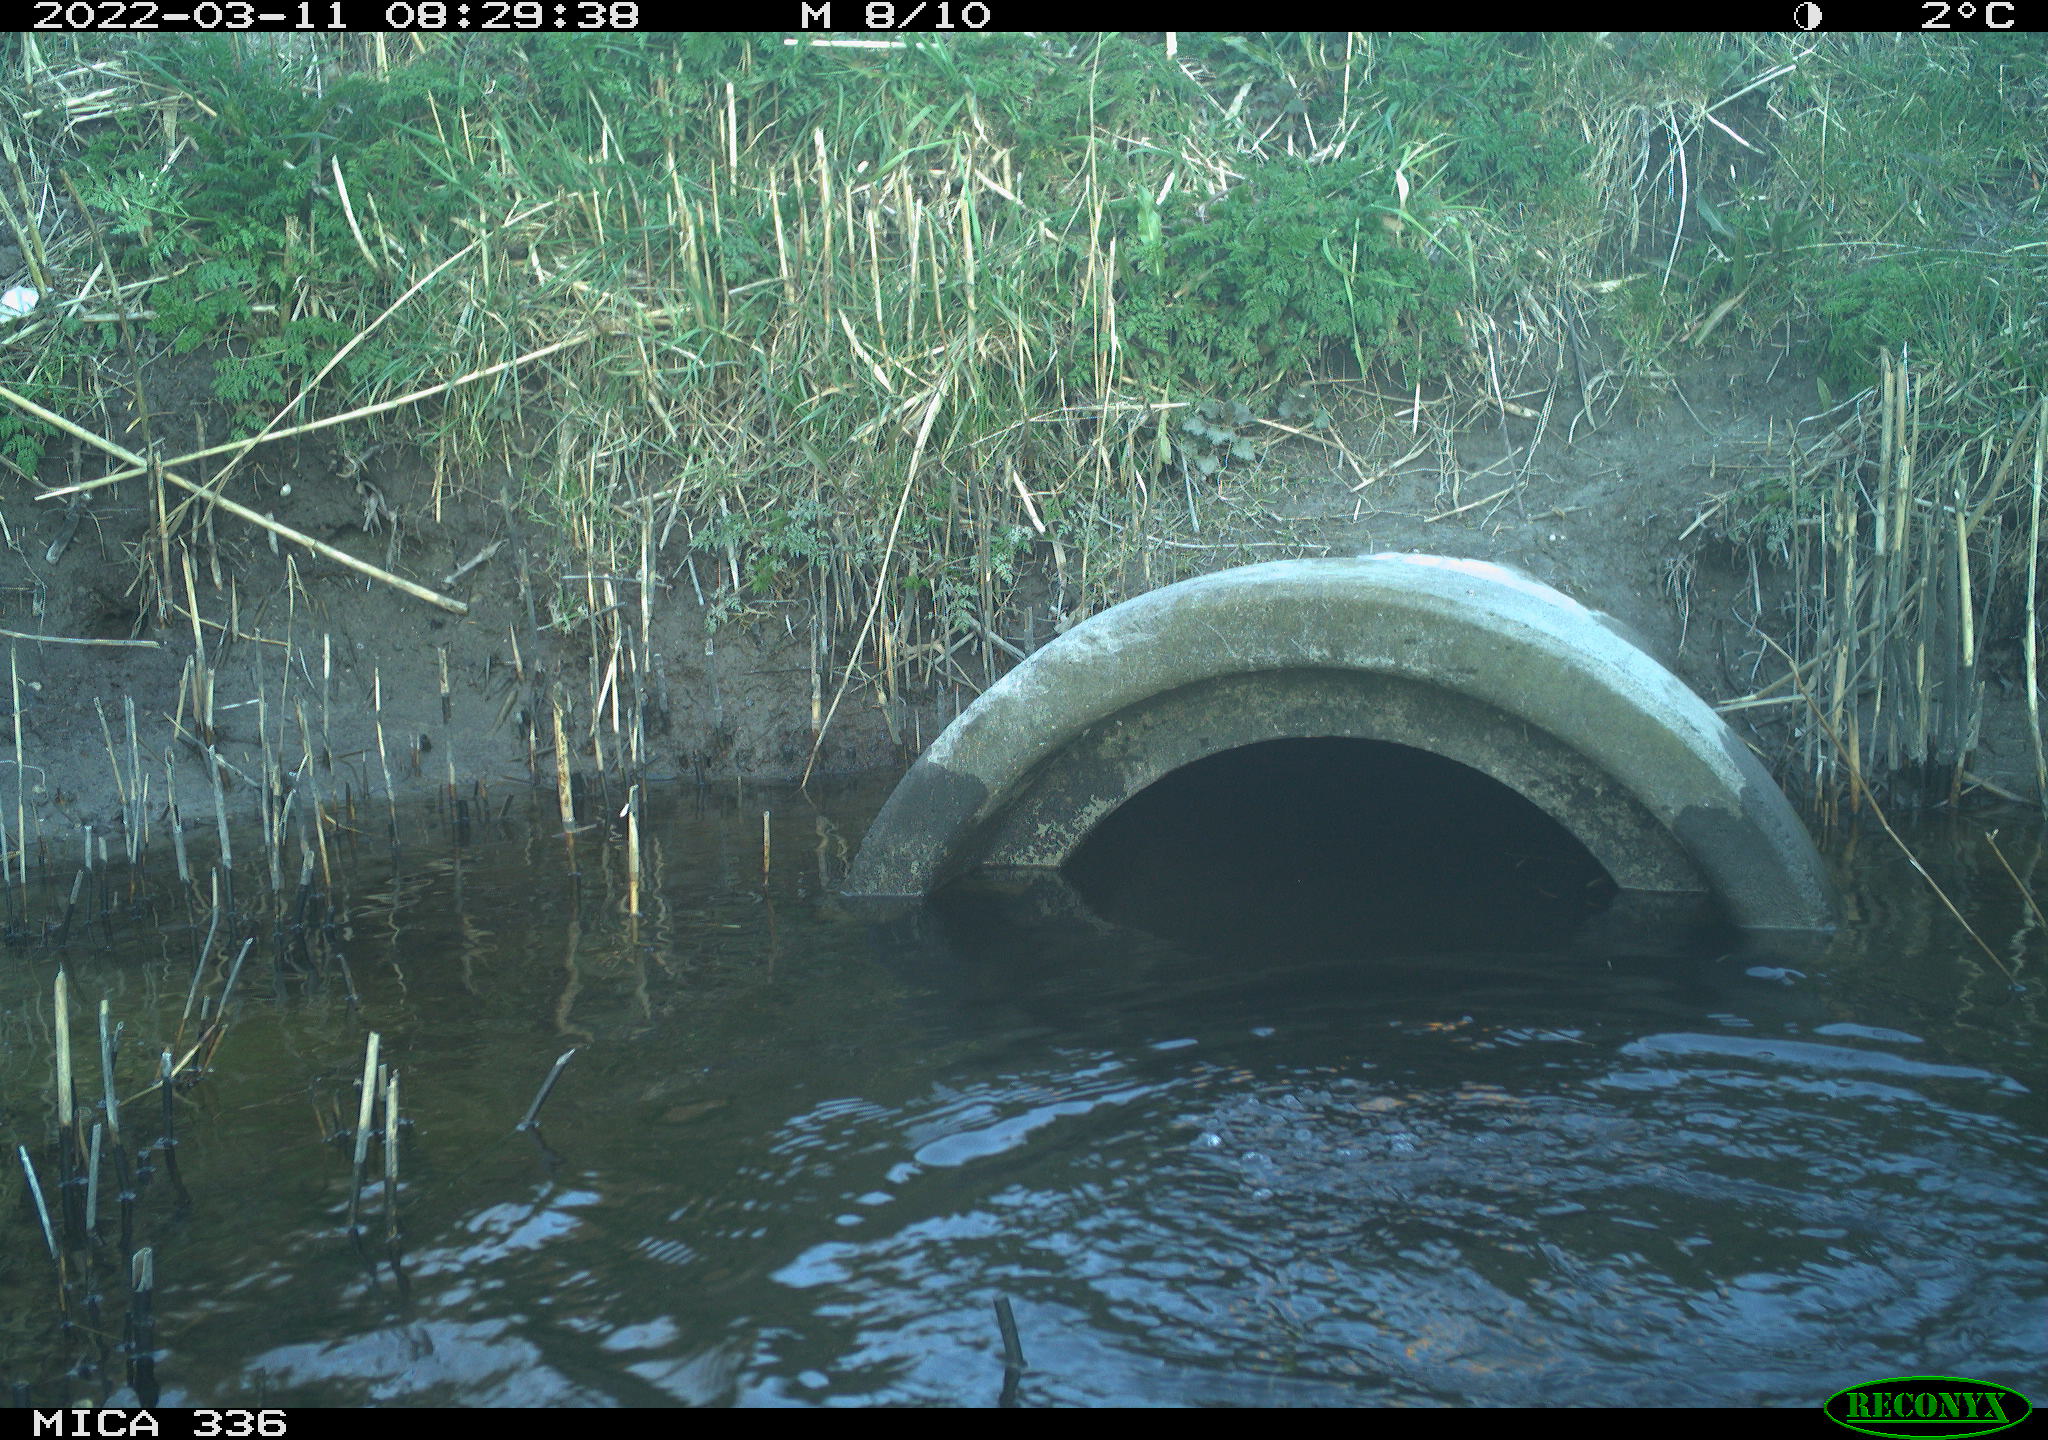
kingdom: Animalia
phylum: Chordata
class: Aves
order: Suliformes
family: Phalacrocoracidae
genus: Phalacrocorax
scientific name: Phalacrocorax carbo
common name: Great cormorant
